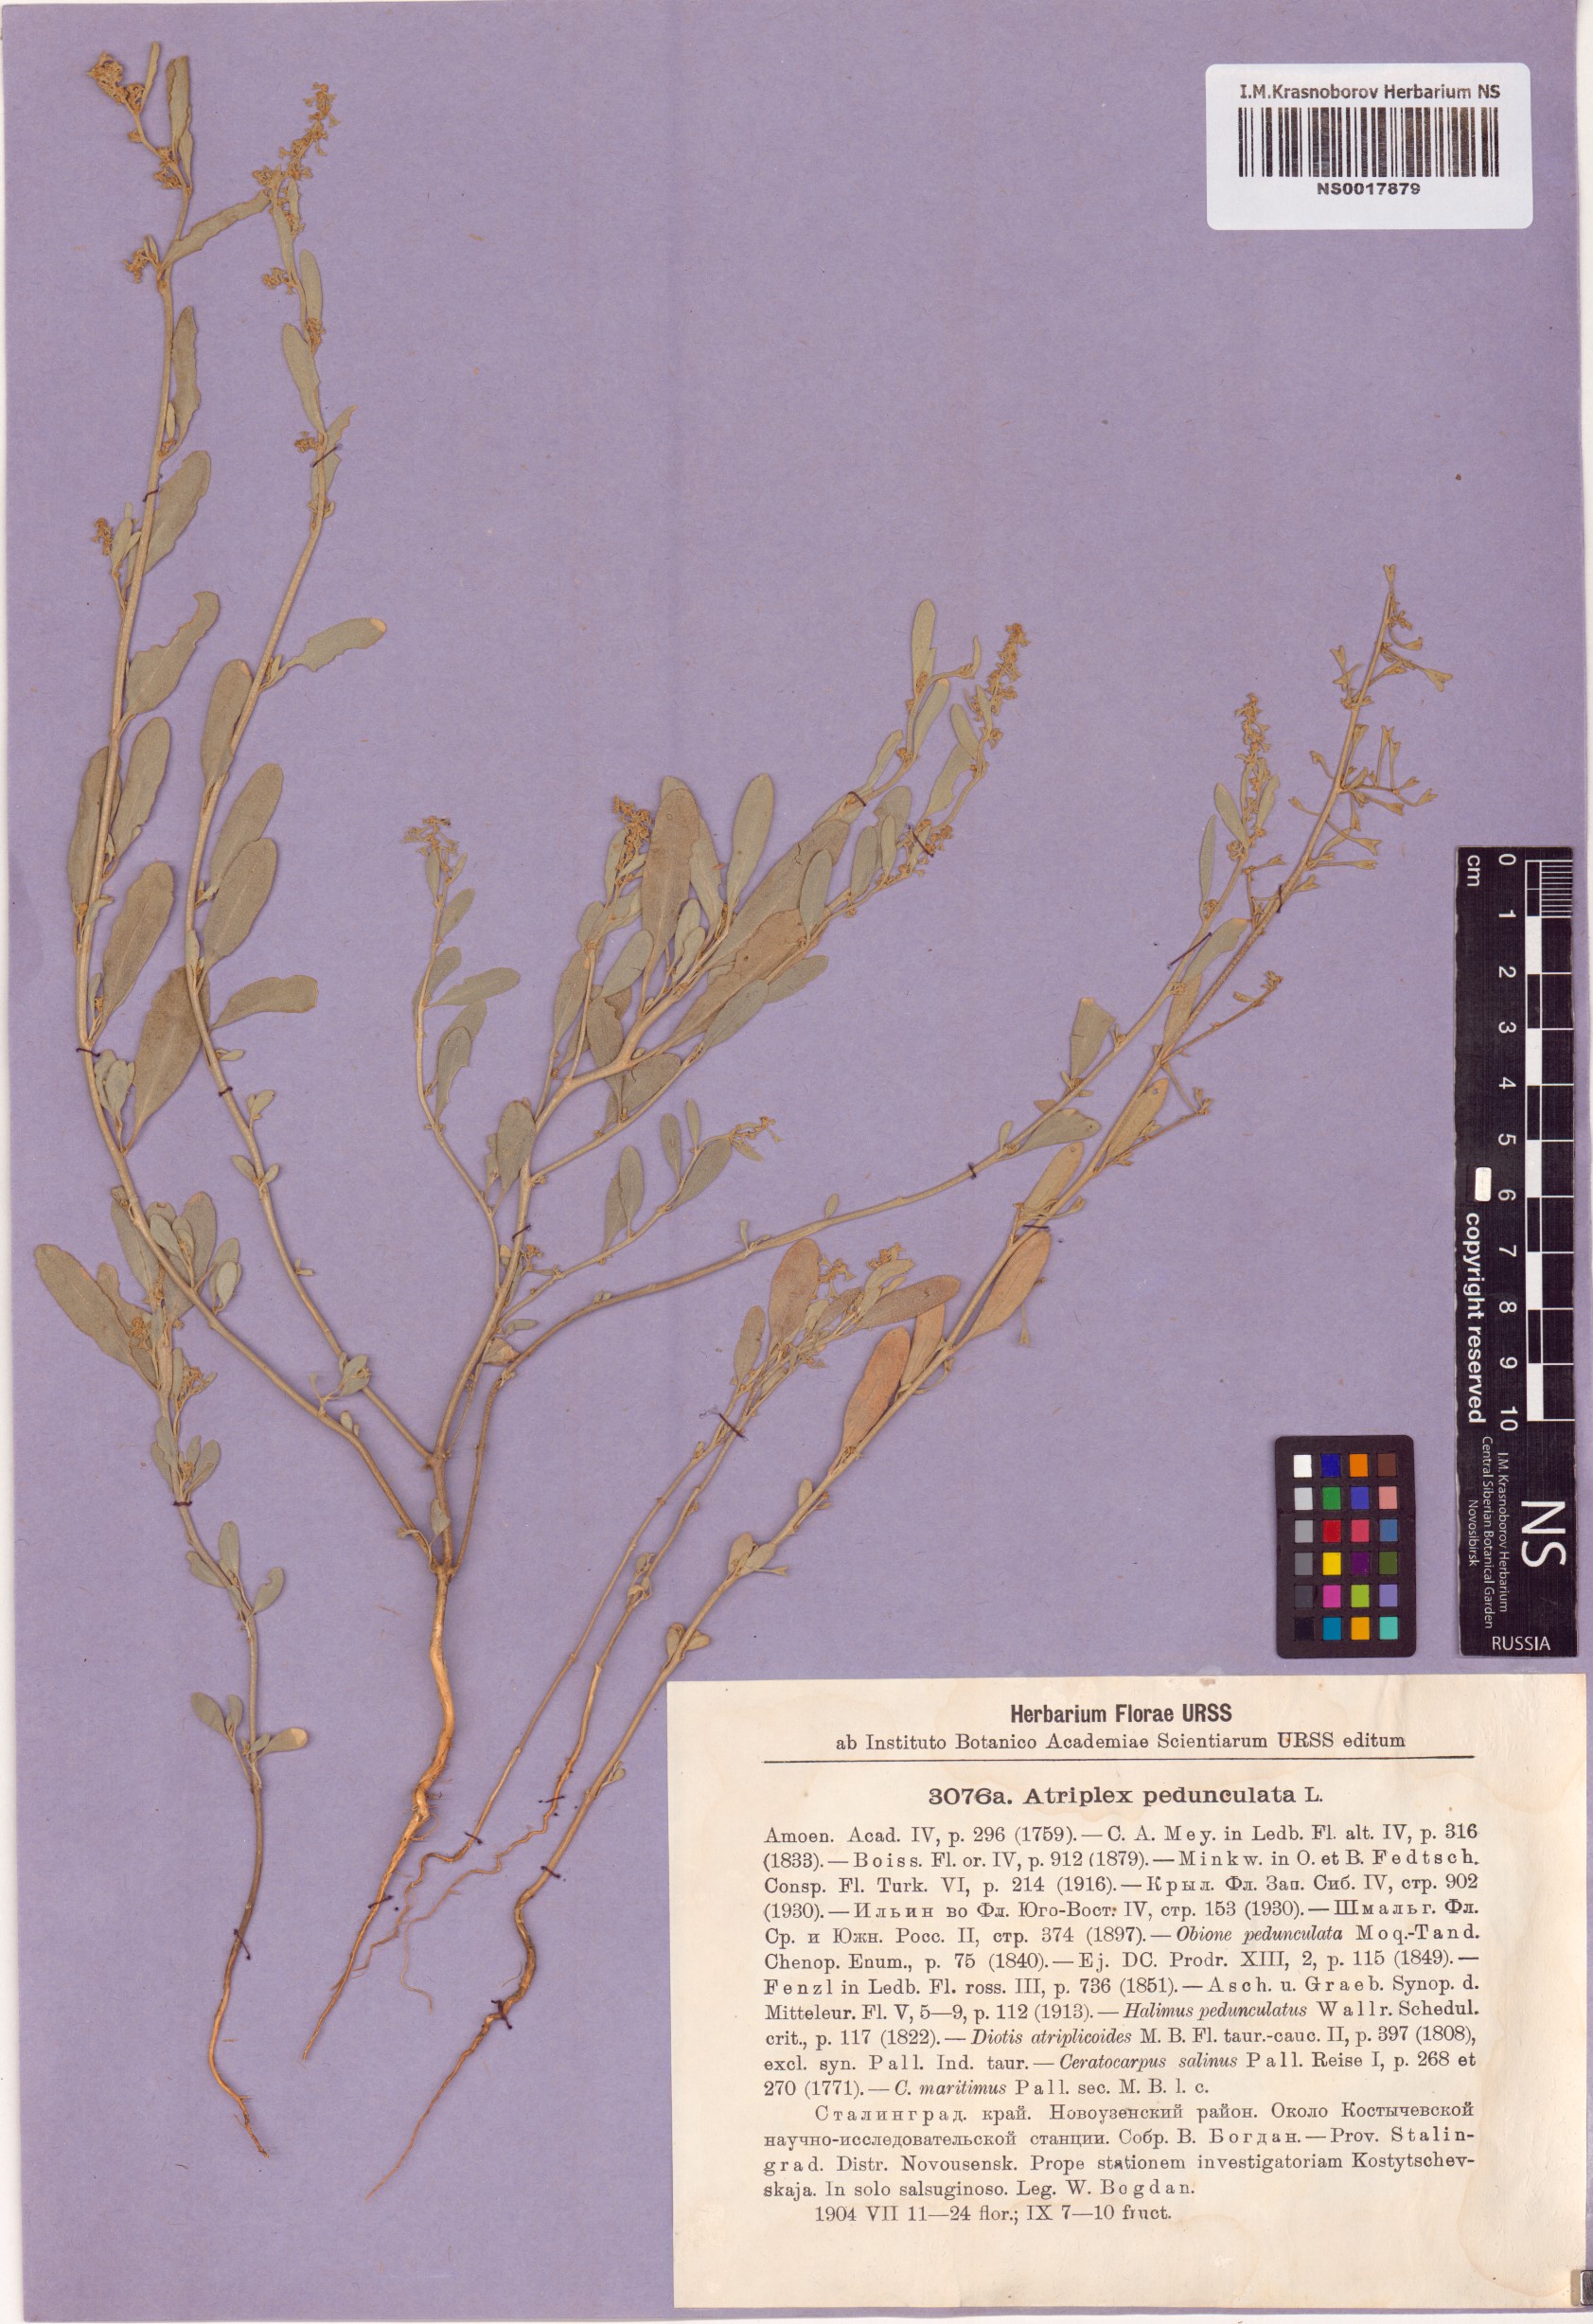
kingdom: Plantae
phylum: Tracheophyta
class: Magnoliopsida
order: Caryophyllales
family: Amaranthaceae
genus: Halimione
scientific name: Halimione pedunculata
